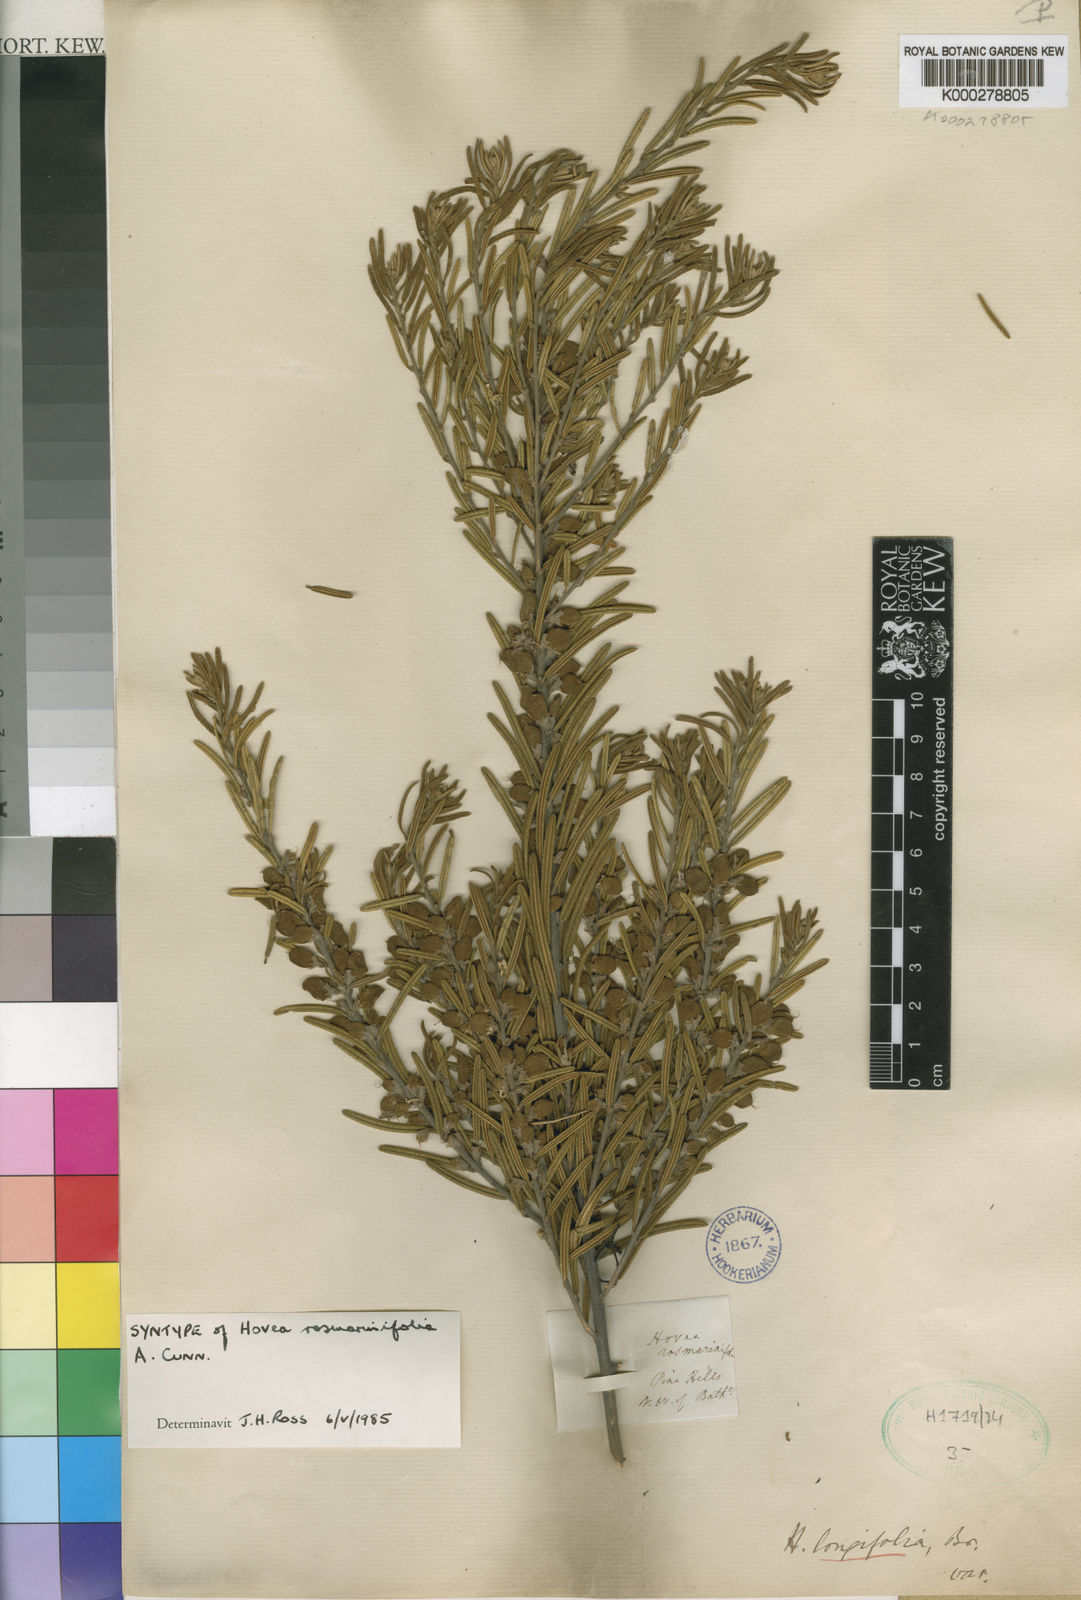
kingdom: Plantae
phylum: Tracheophyta
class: Magnoliopsida
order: Fabales
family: Fabaceae
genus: Hovea
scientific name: Hovea rosmarinifolia
